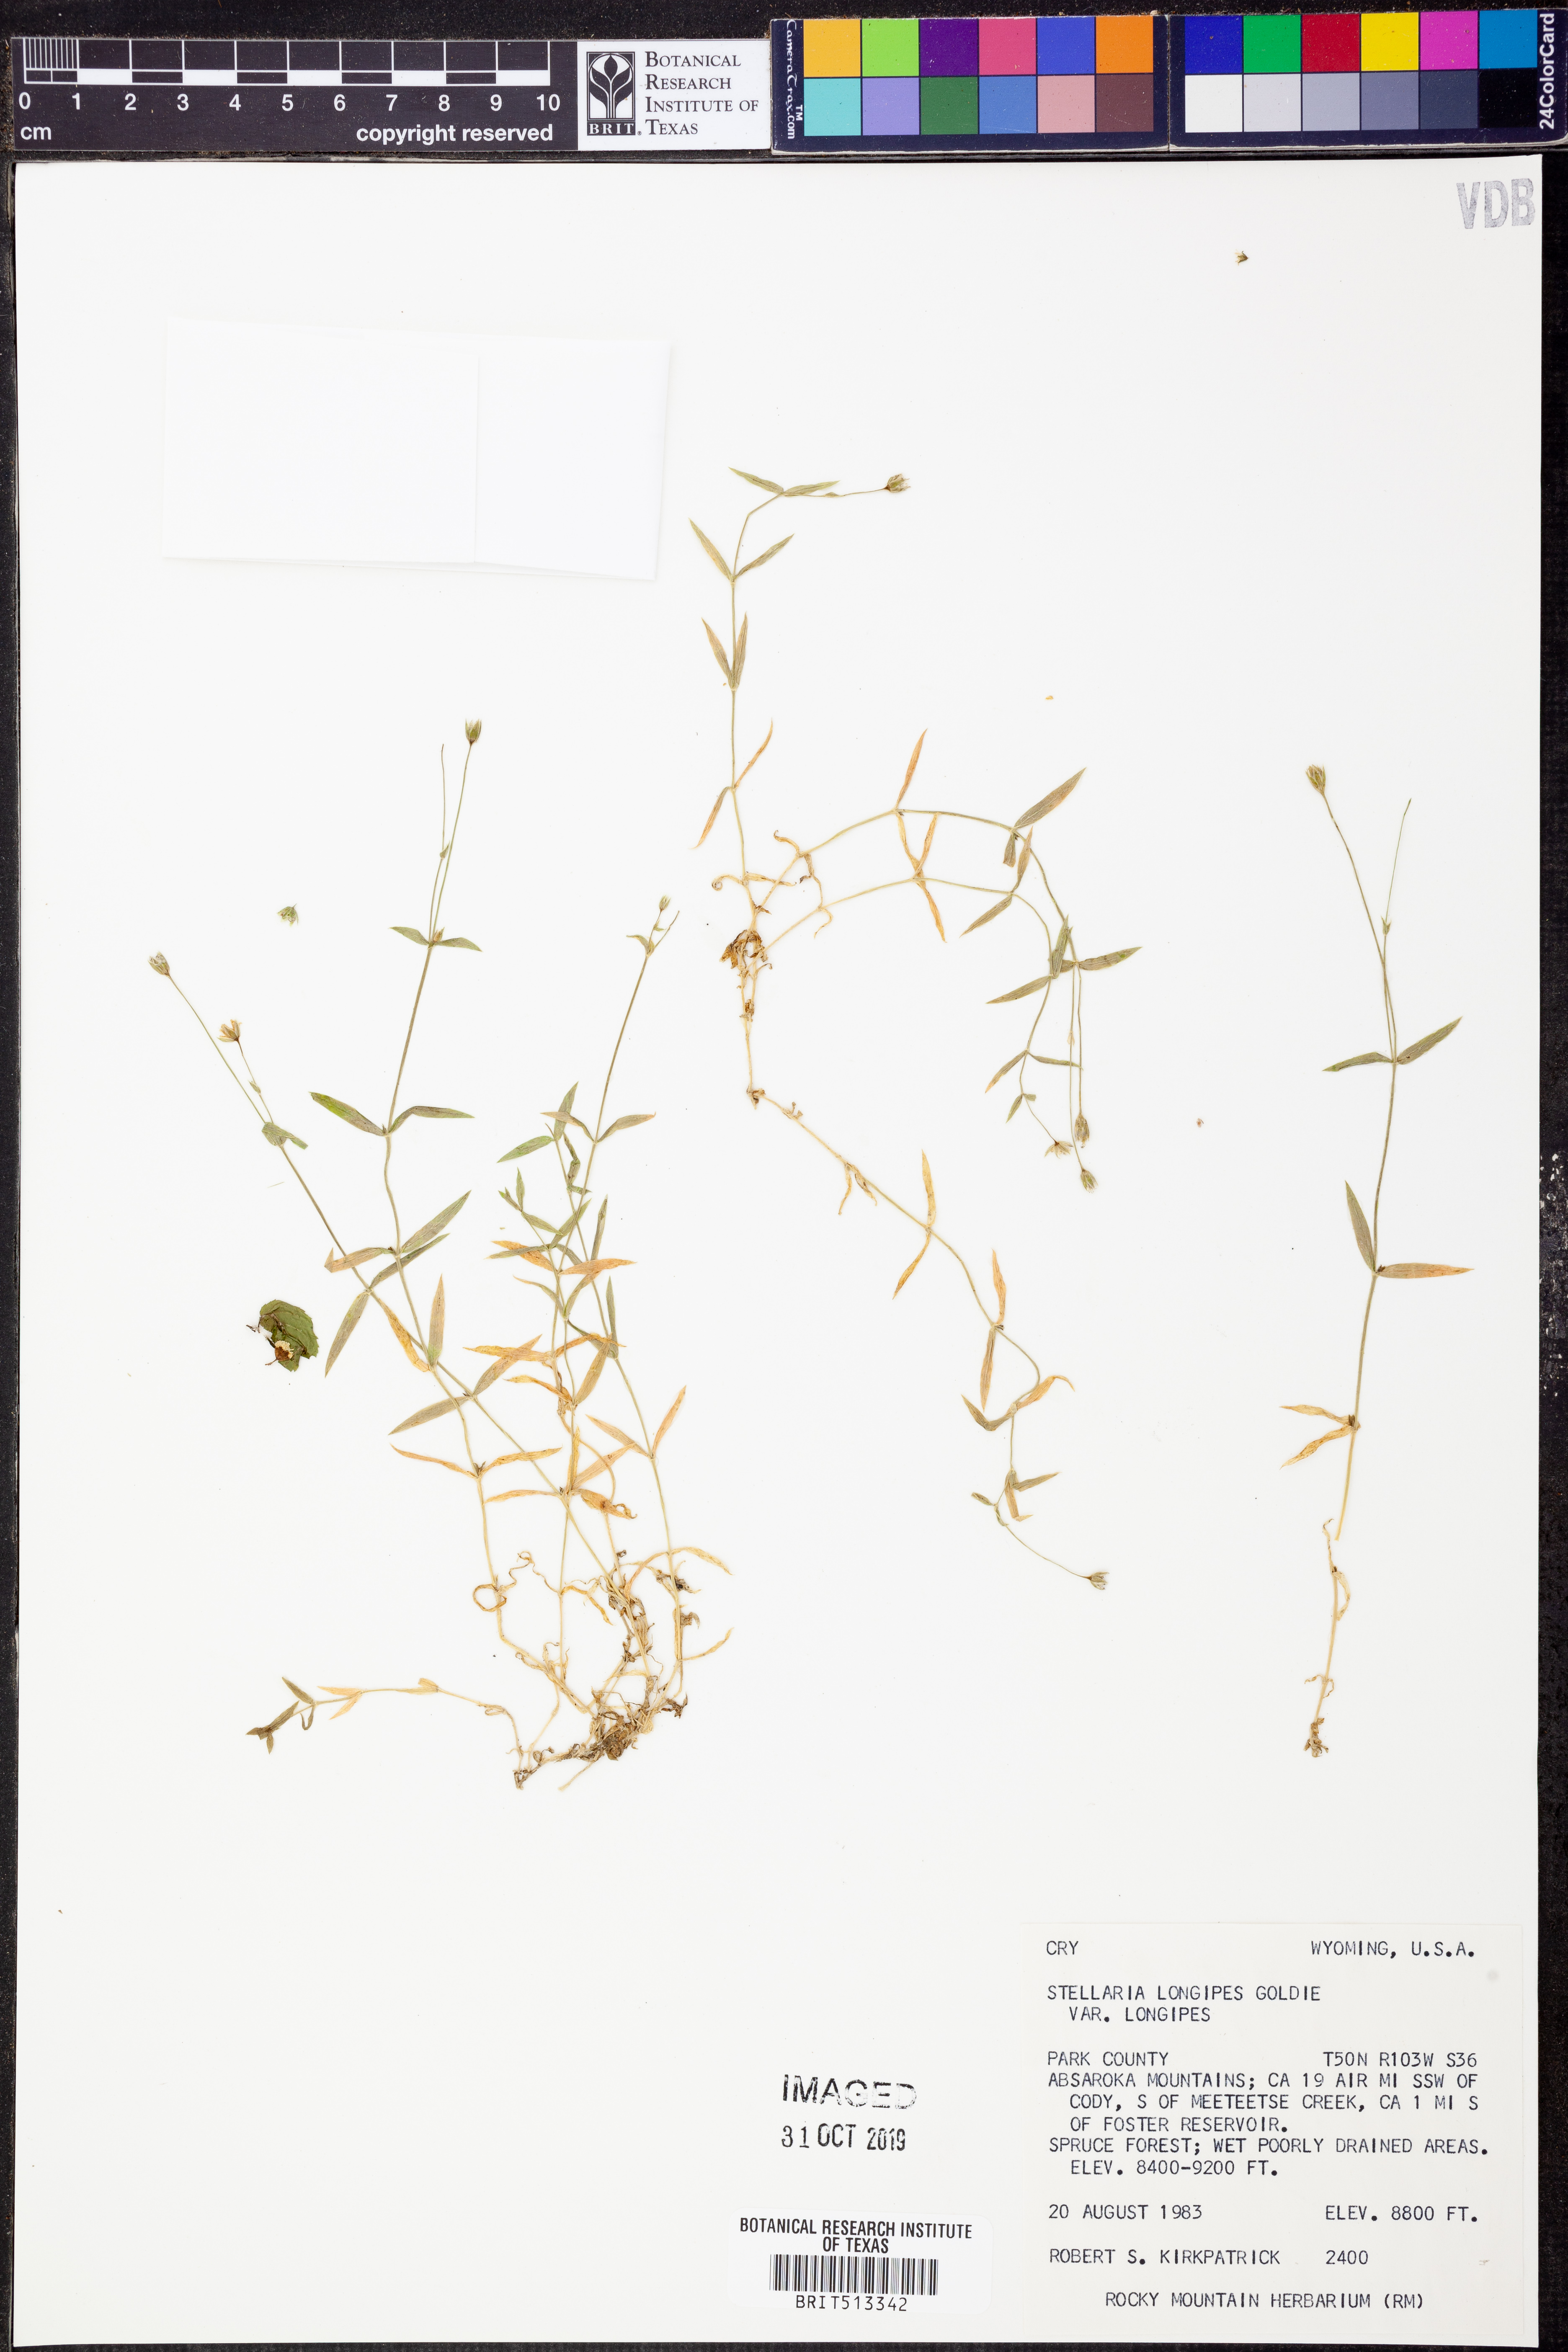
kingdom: Plantae
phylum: Tracheophyta
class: Magnoliopsida
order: Caryophyllales
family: Caryophyllaceae
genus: Stellaria
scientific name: Stellaria longipes
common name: Goldie's starwort
